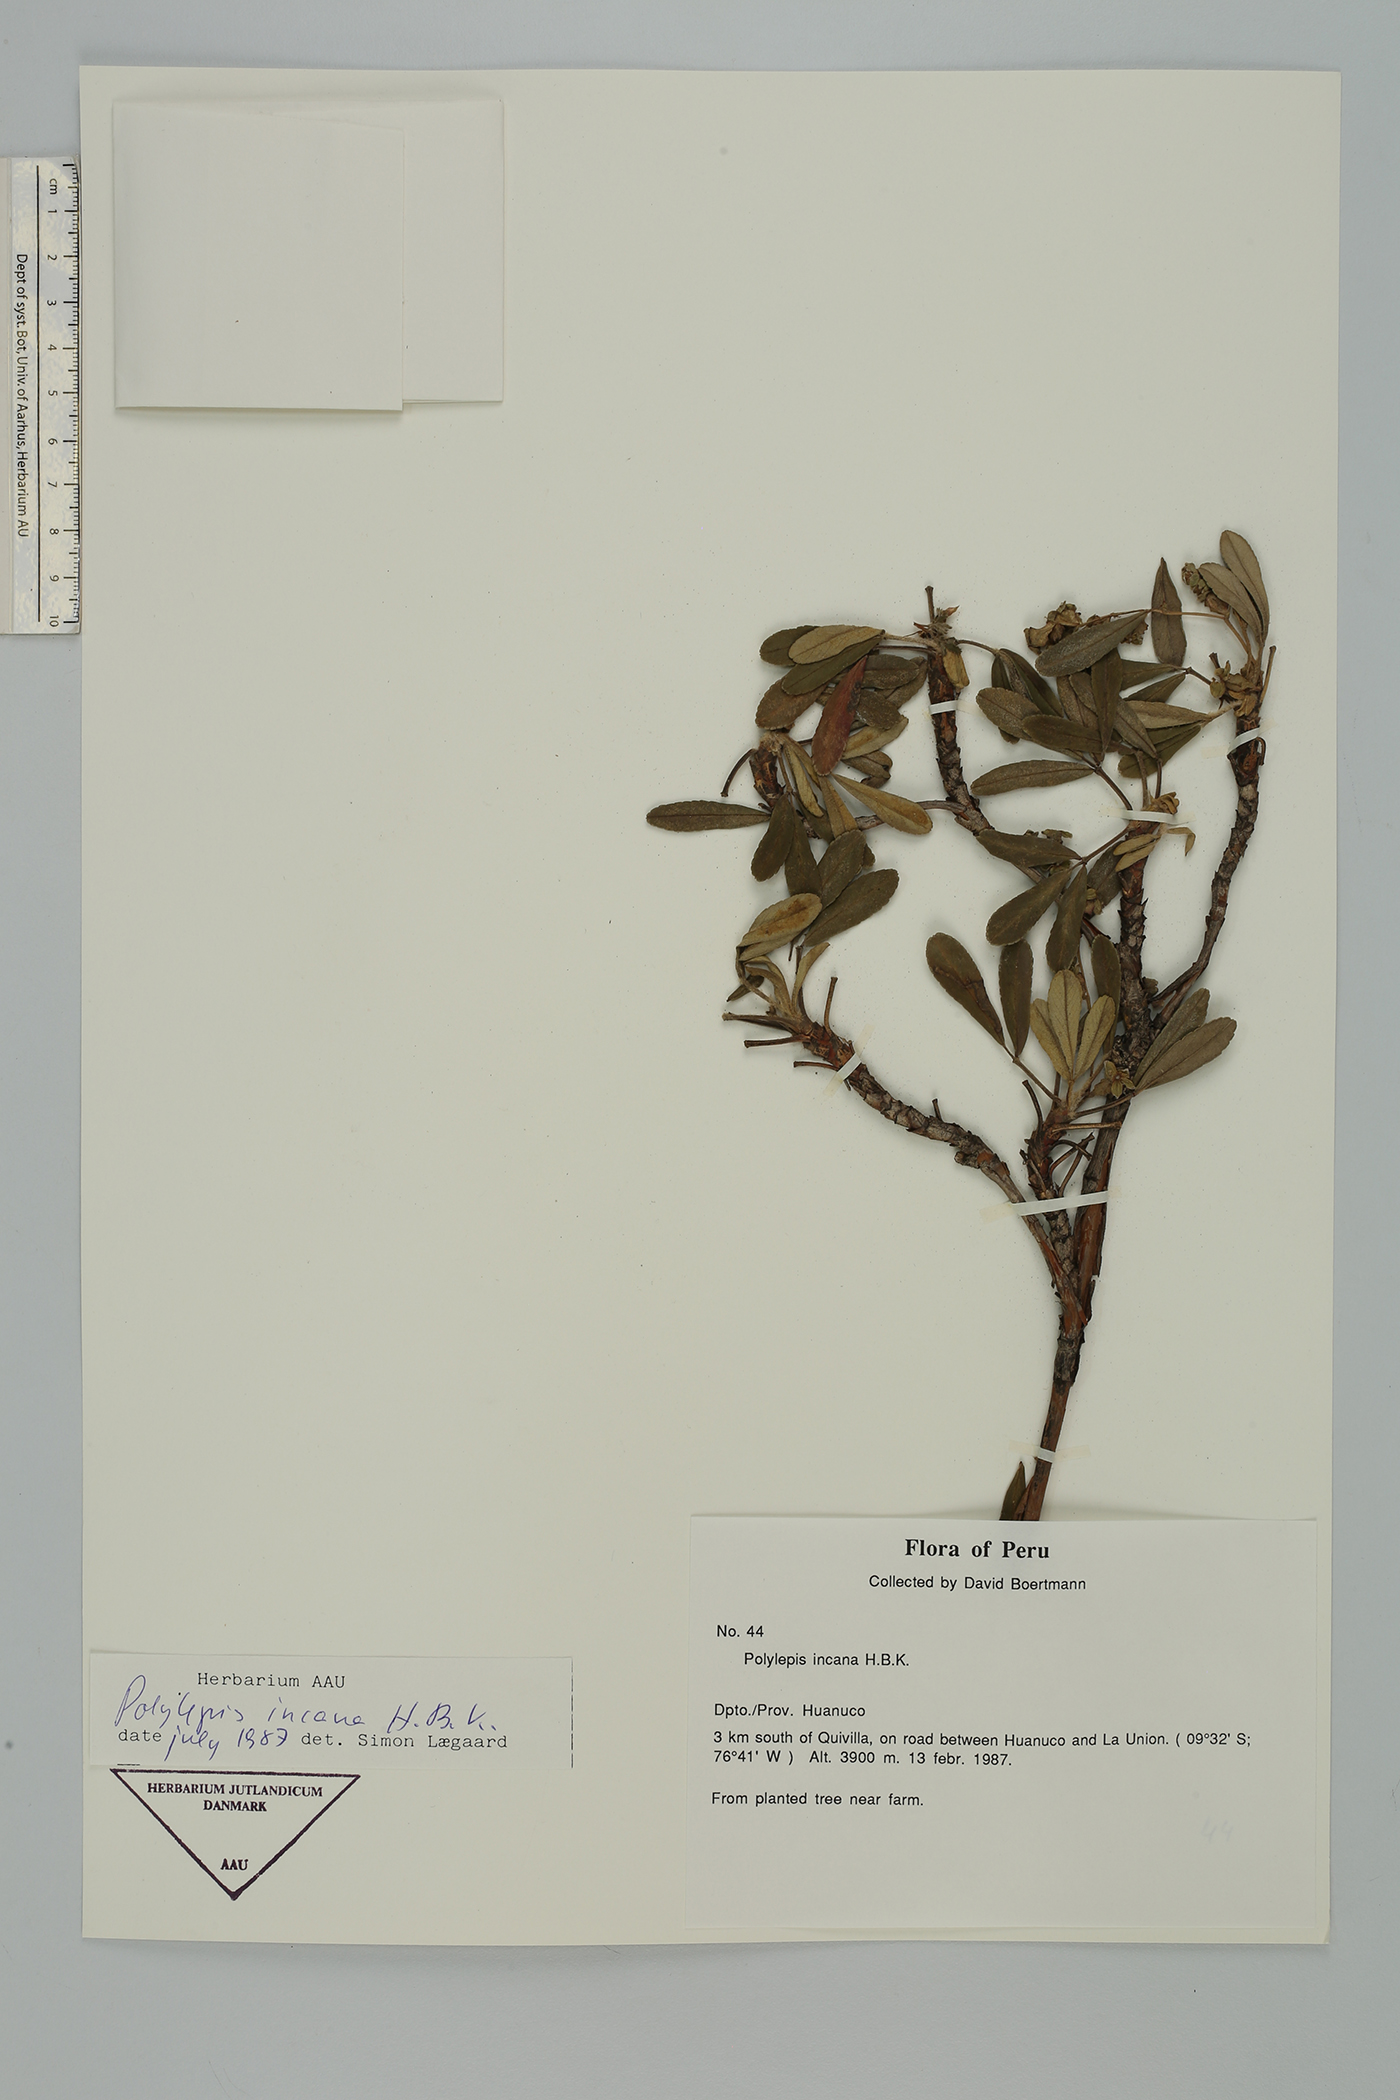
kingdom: Plantae
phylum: Tracheophyta
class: Magnoliopsida
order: Rosales
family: Rosaceae
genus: Polylepis
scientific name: Polylepis incana
